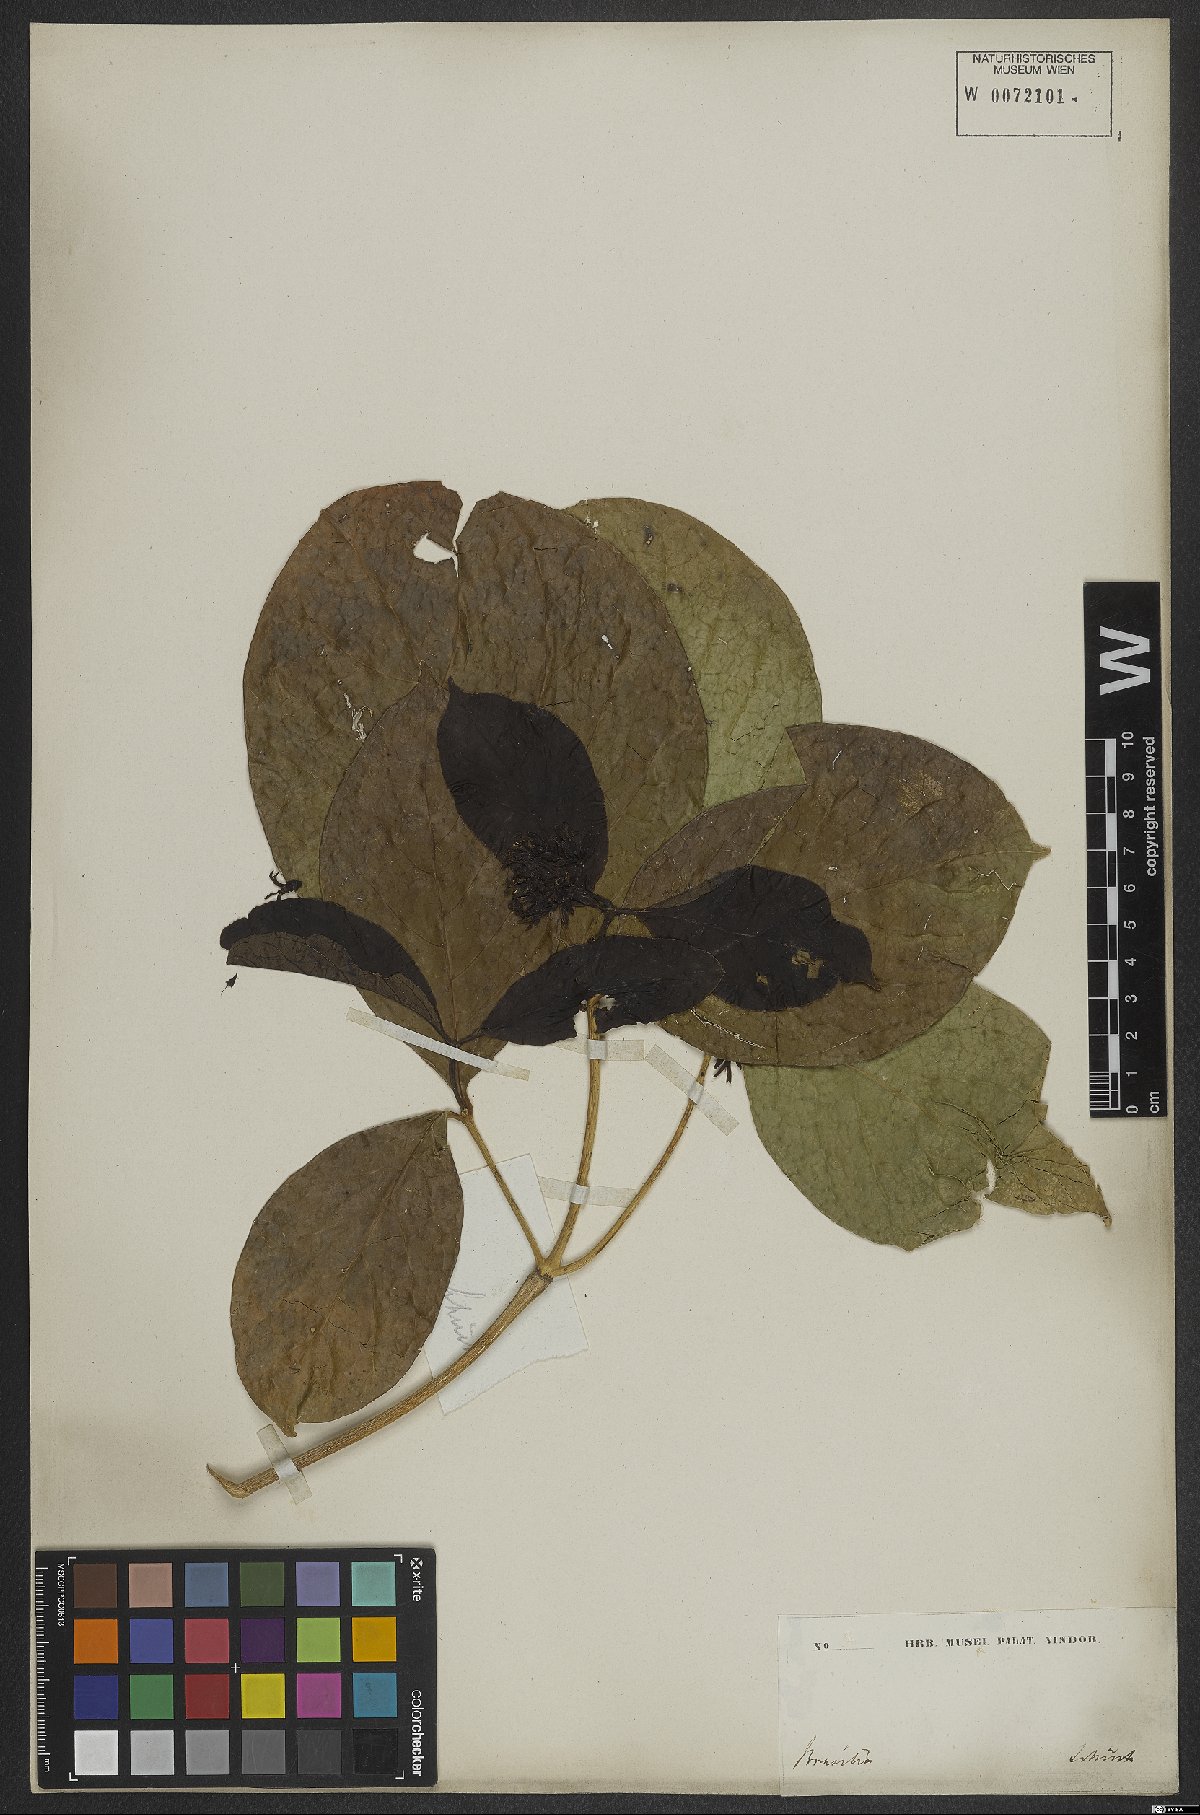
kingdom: Plantae
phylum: Tracheophyta
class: Magnoliopsida
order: Gentianales
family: Rubiaceae
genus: Coussarea
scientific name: Coussarea hydrangeifolia
